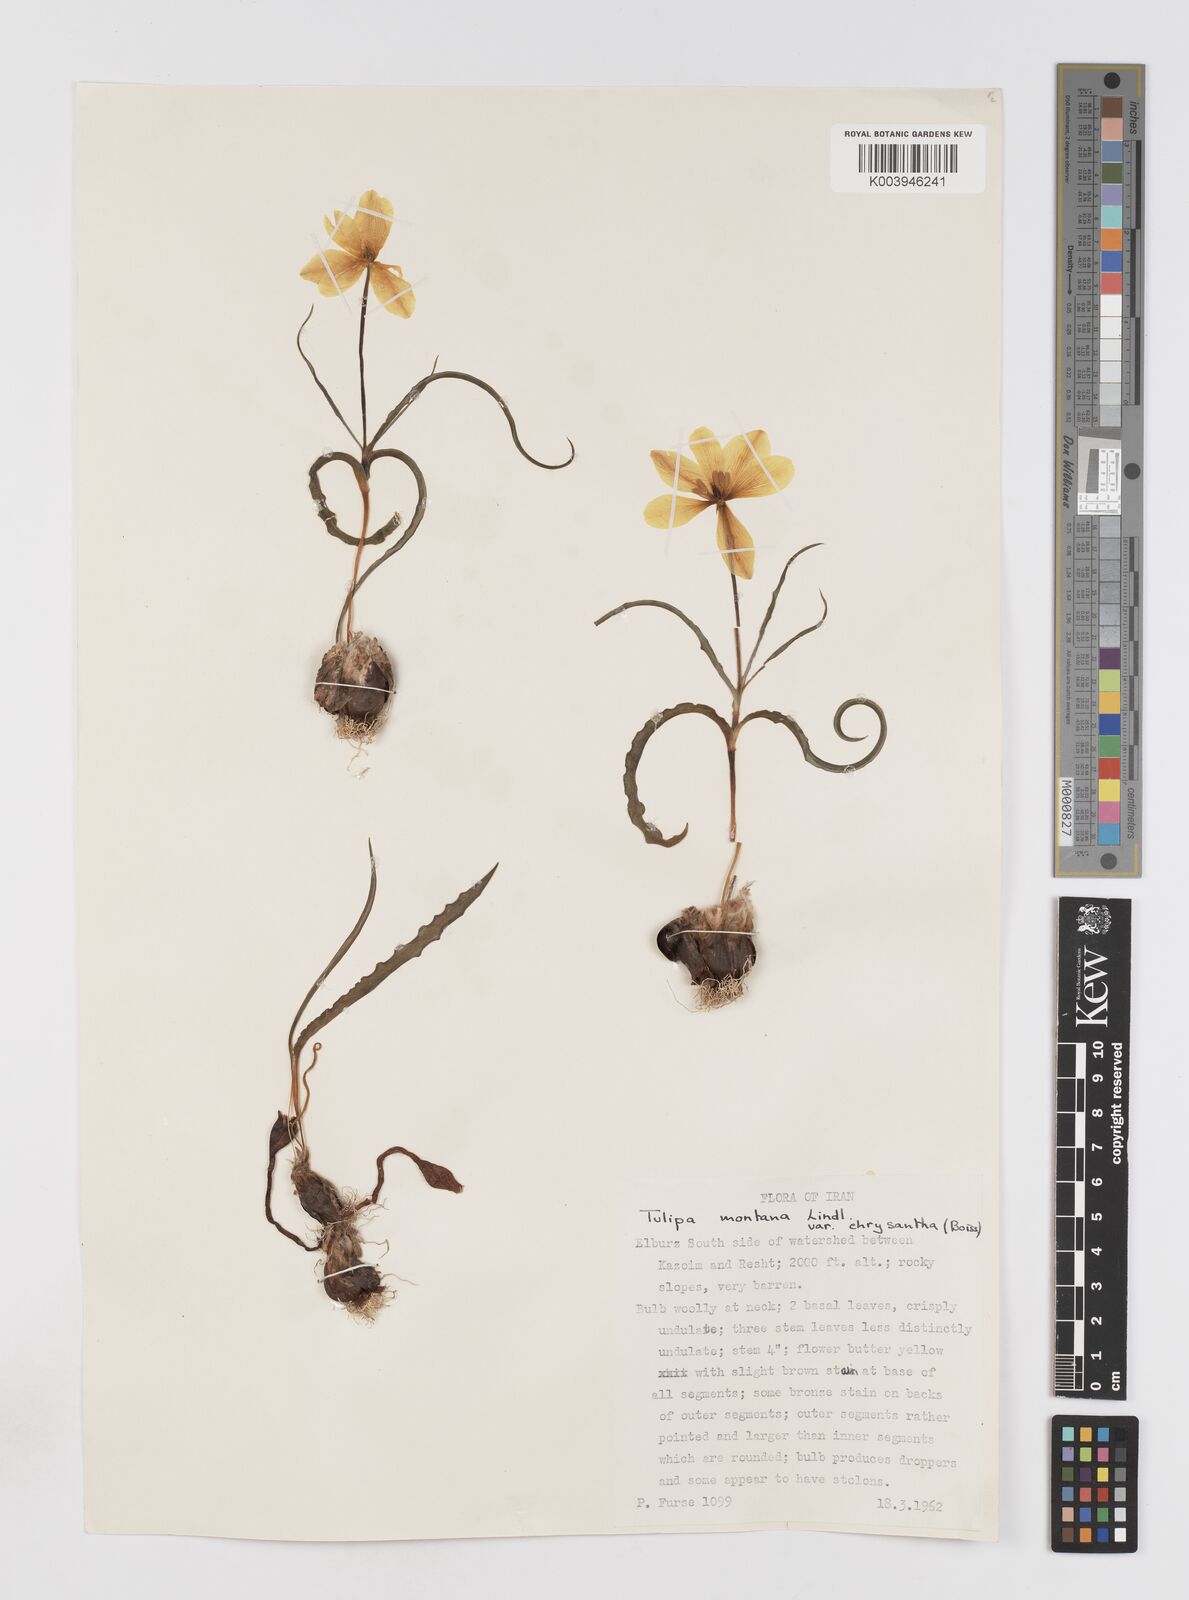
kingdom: Plantae
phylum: Tracheophyta
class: Liliopsida
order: Liliales
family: Liliaceae
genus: Tulipa
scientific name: Tulipa montana
